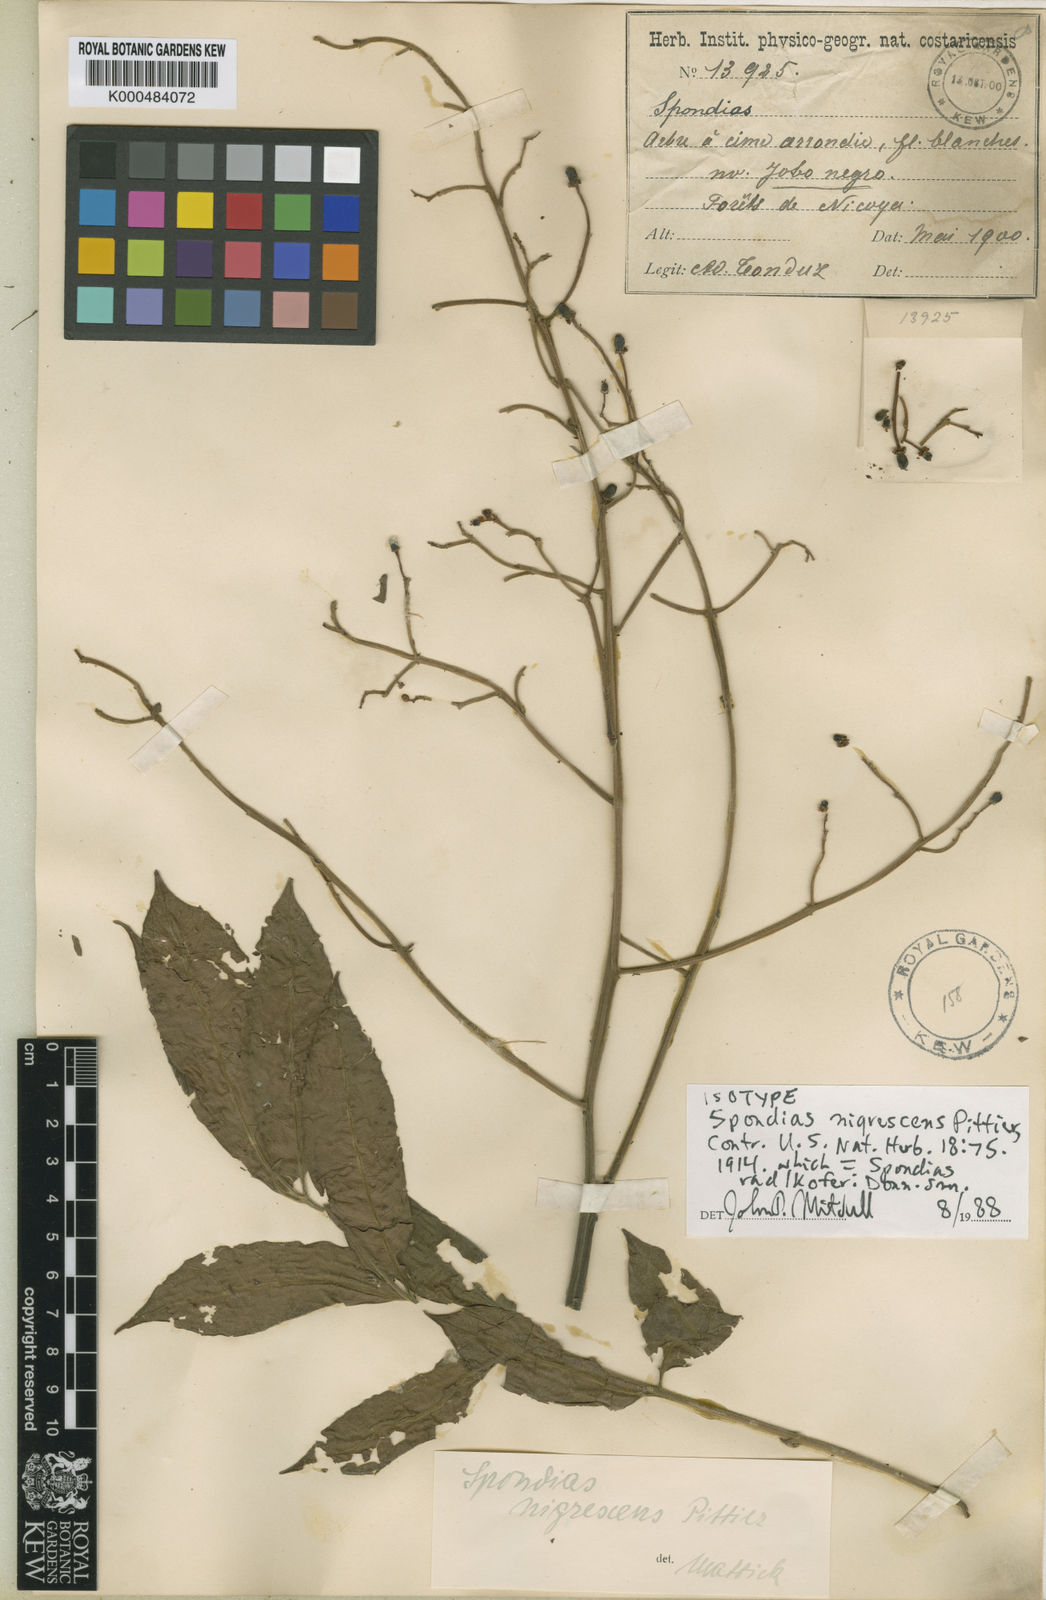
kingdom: Plantae
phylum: Tracheophyta
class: Magnoliopsida
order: Sapindales
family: Anacardiaceae
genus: Spondias
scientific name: Spondias radlkoferi
